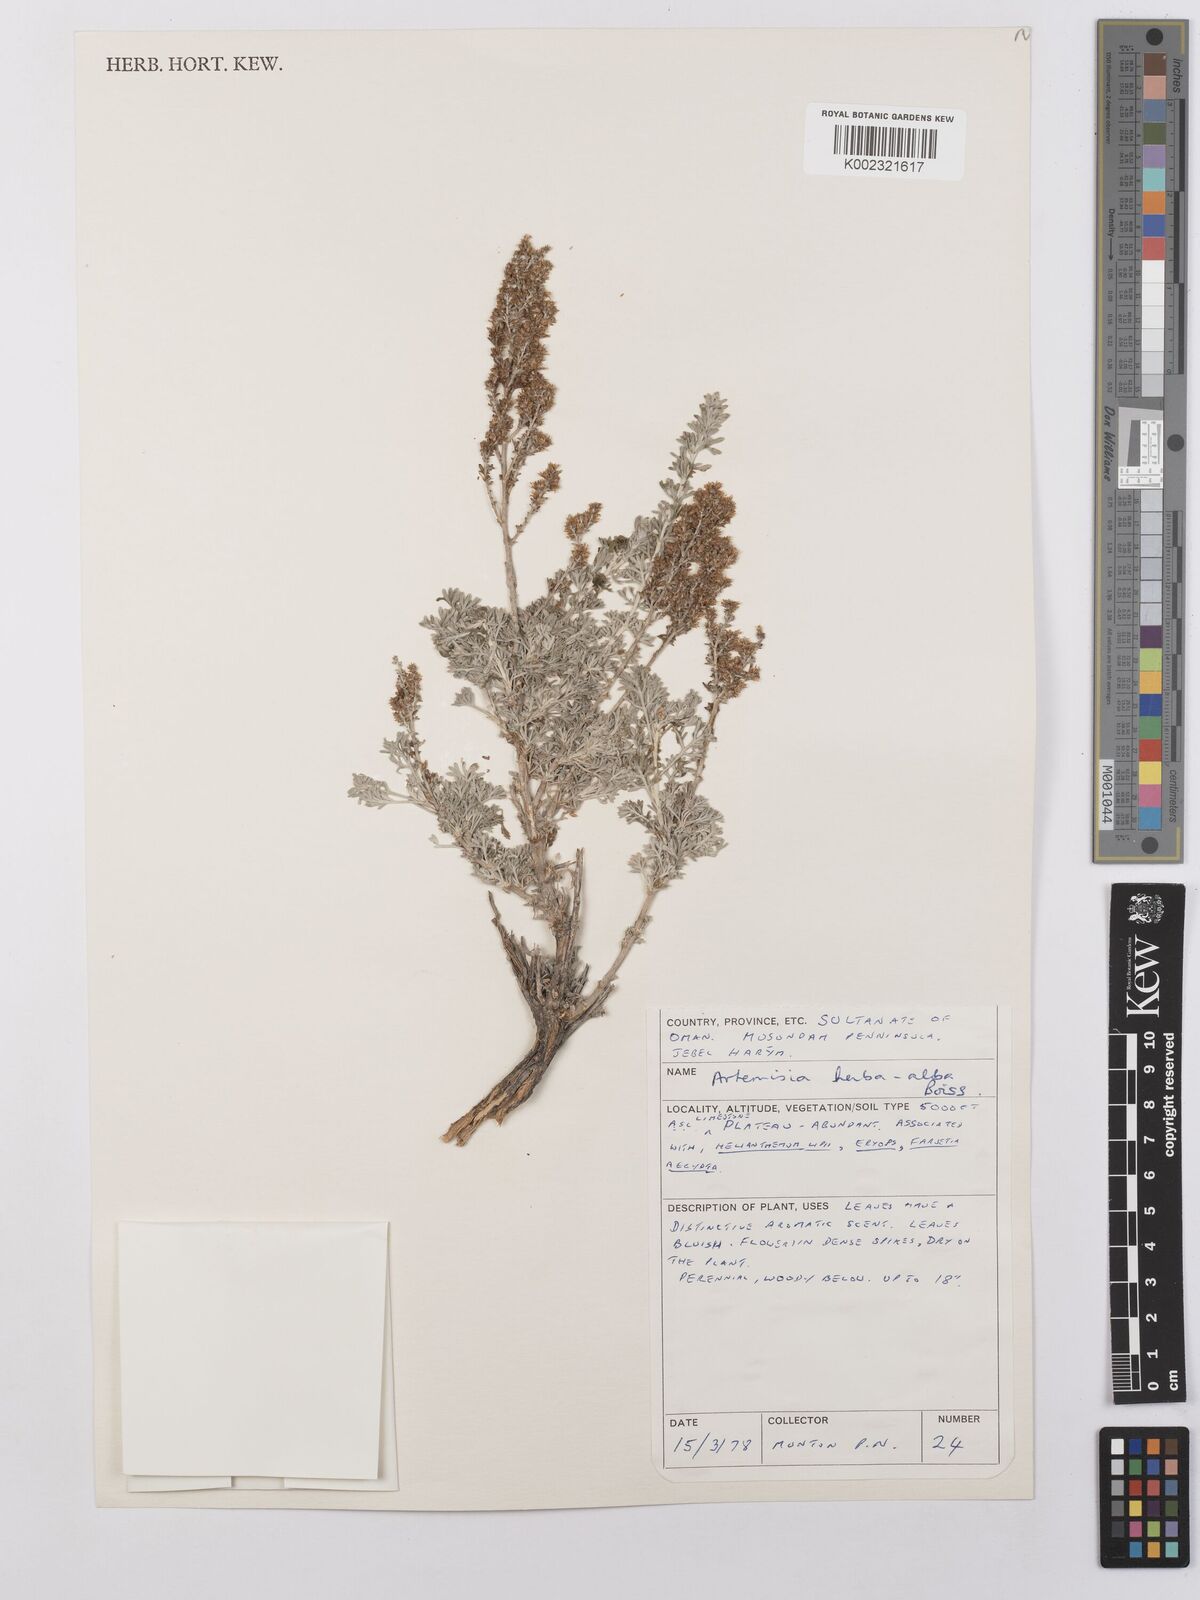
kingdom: Plantae
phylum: Tracheophyta
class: Magnoliopsida
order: Asterales
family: Asteraceae
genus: Artemisia
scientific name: Artemisia herba-alba
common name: White wormwood
